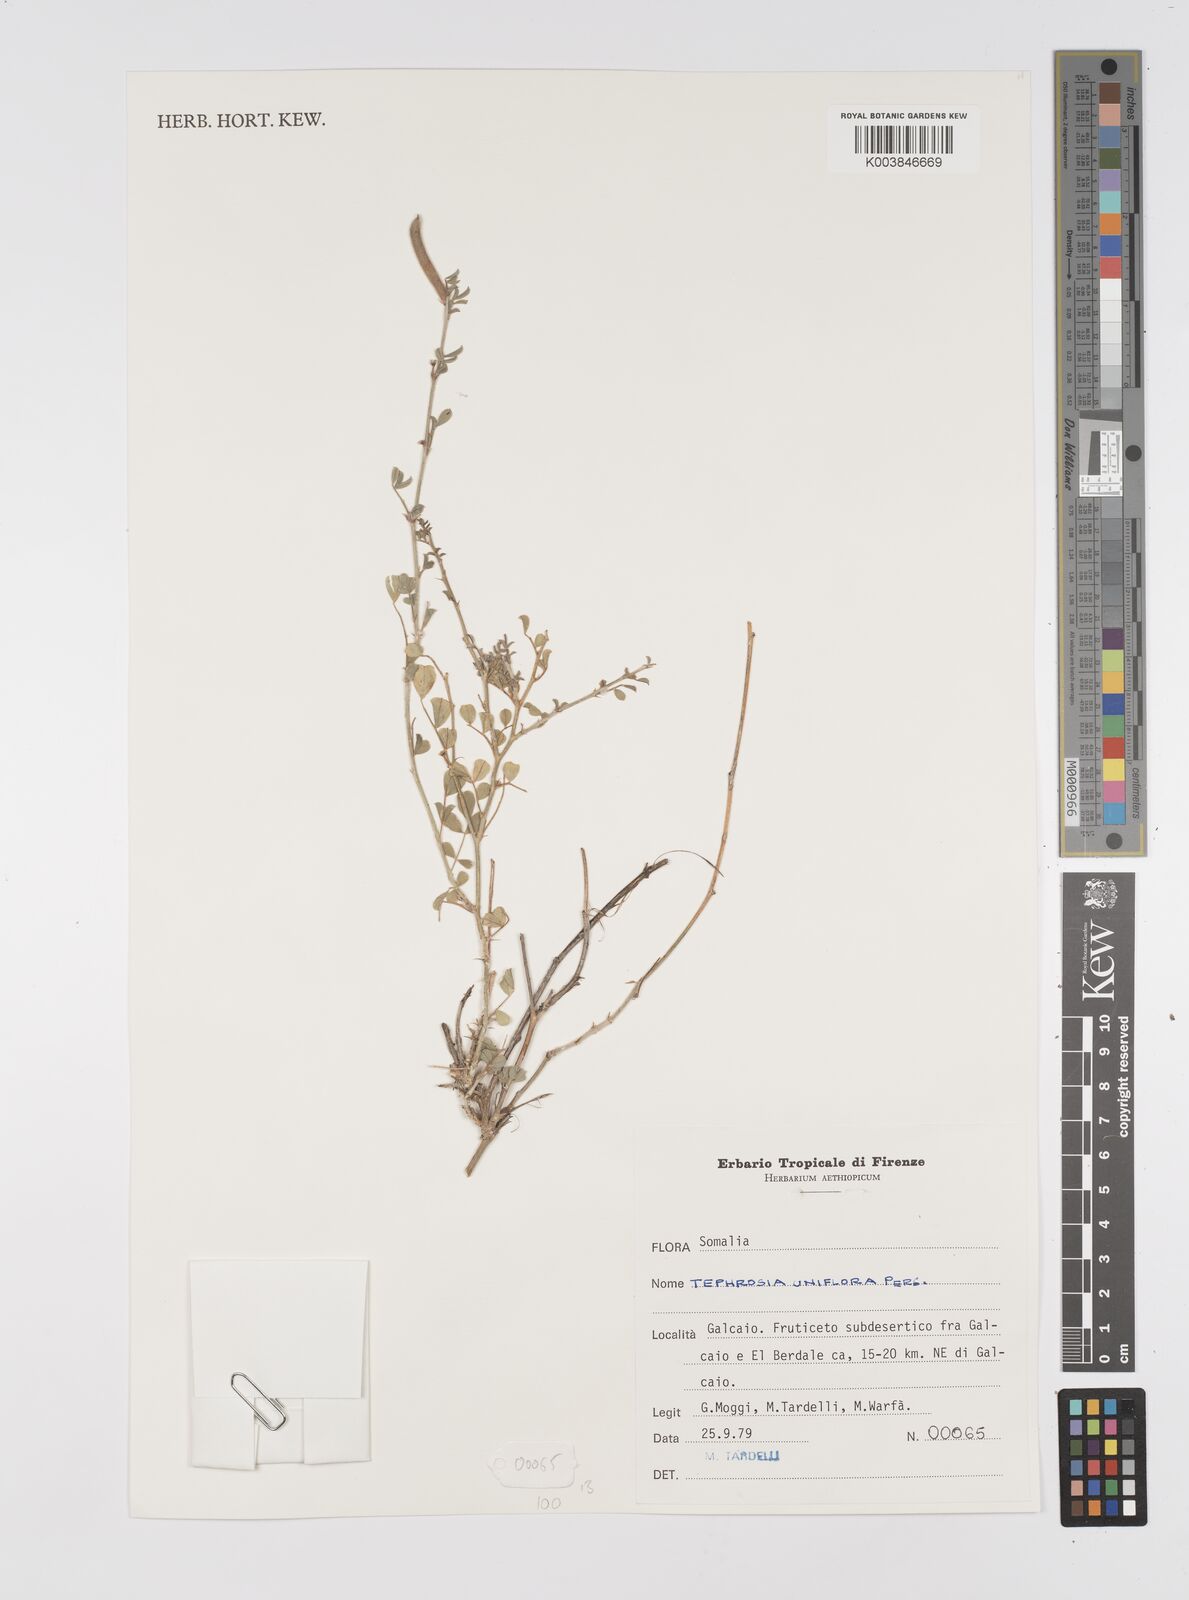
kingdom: Plantae
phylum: Tracheophyta
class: Magnoliopsida
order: Fabales
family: Fabaceae
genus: Tephrosia
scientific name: Tephrosia uniflora
